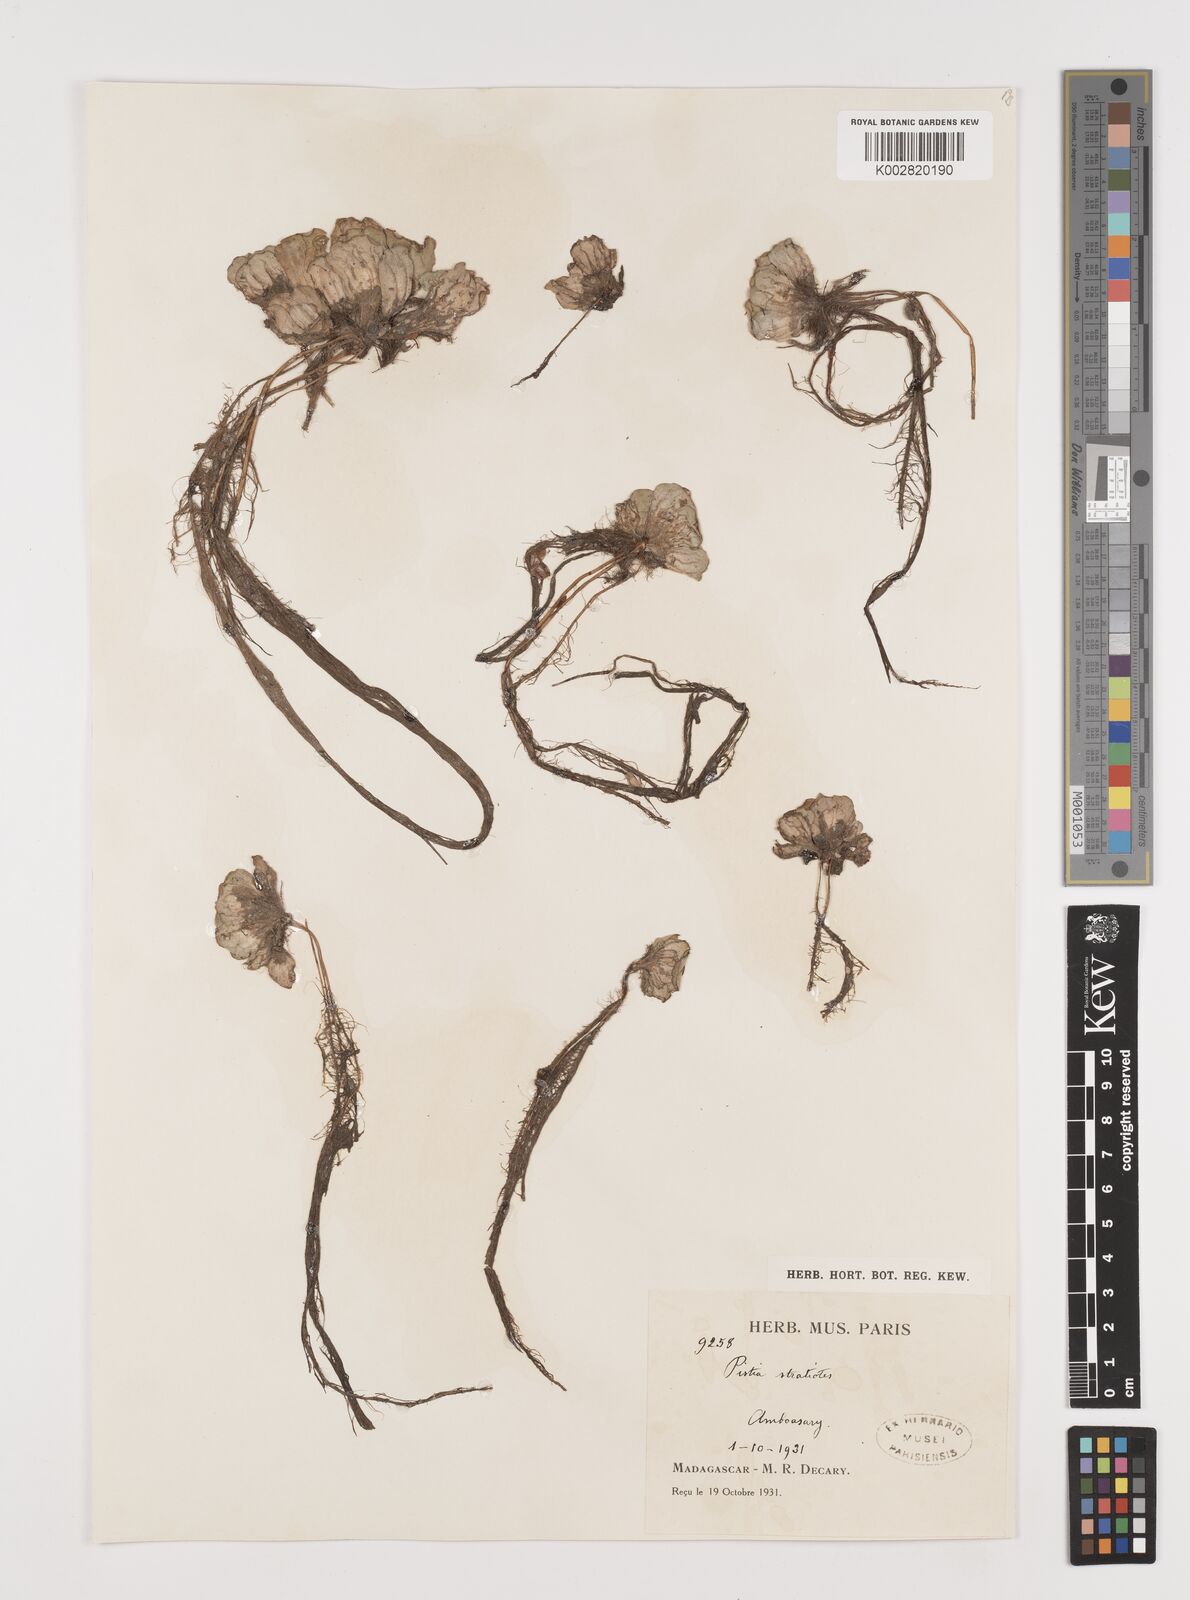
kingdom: Plantae
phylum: Tracheophyta
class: Liliopsida
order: Alismatales
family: Araceae
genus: Pistia
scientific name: Pistia stratiotes
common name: Water lettuce
